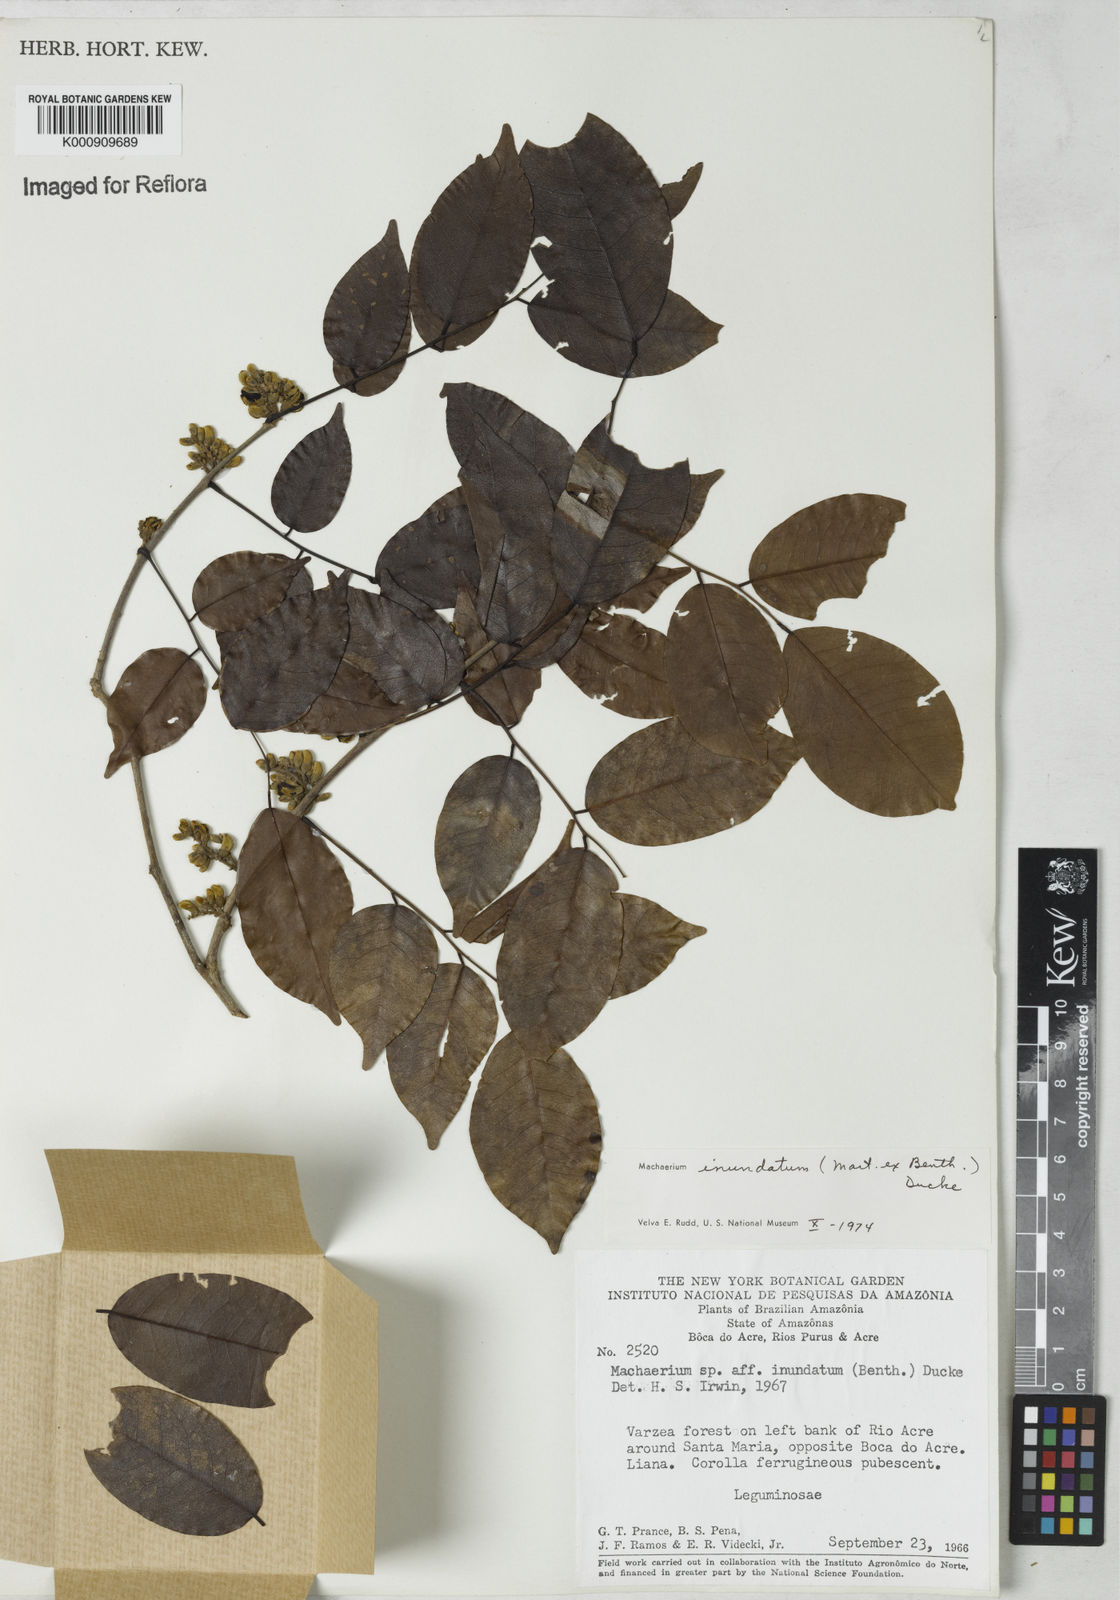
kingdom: Plantae
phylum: Tracheophyta
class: Magnoliopsida
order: Fabales
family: Fabaceae
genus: Machaerium
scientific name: Machaerium inundatum
